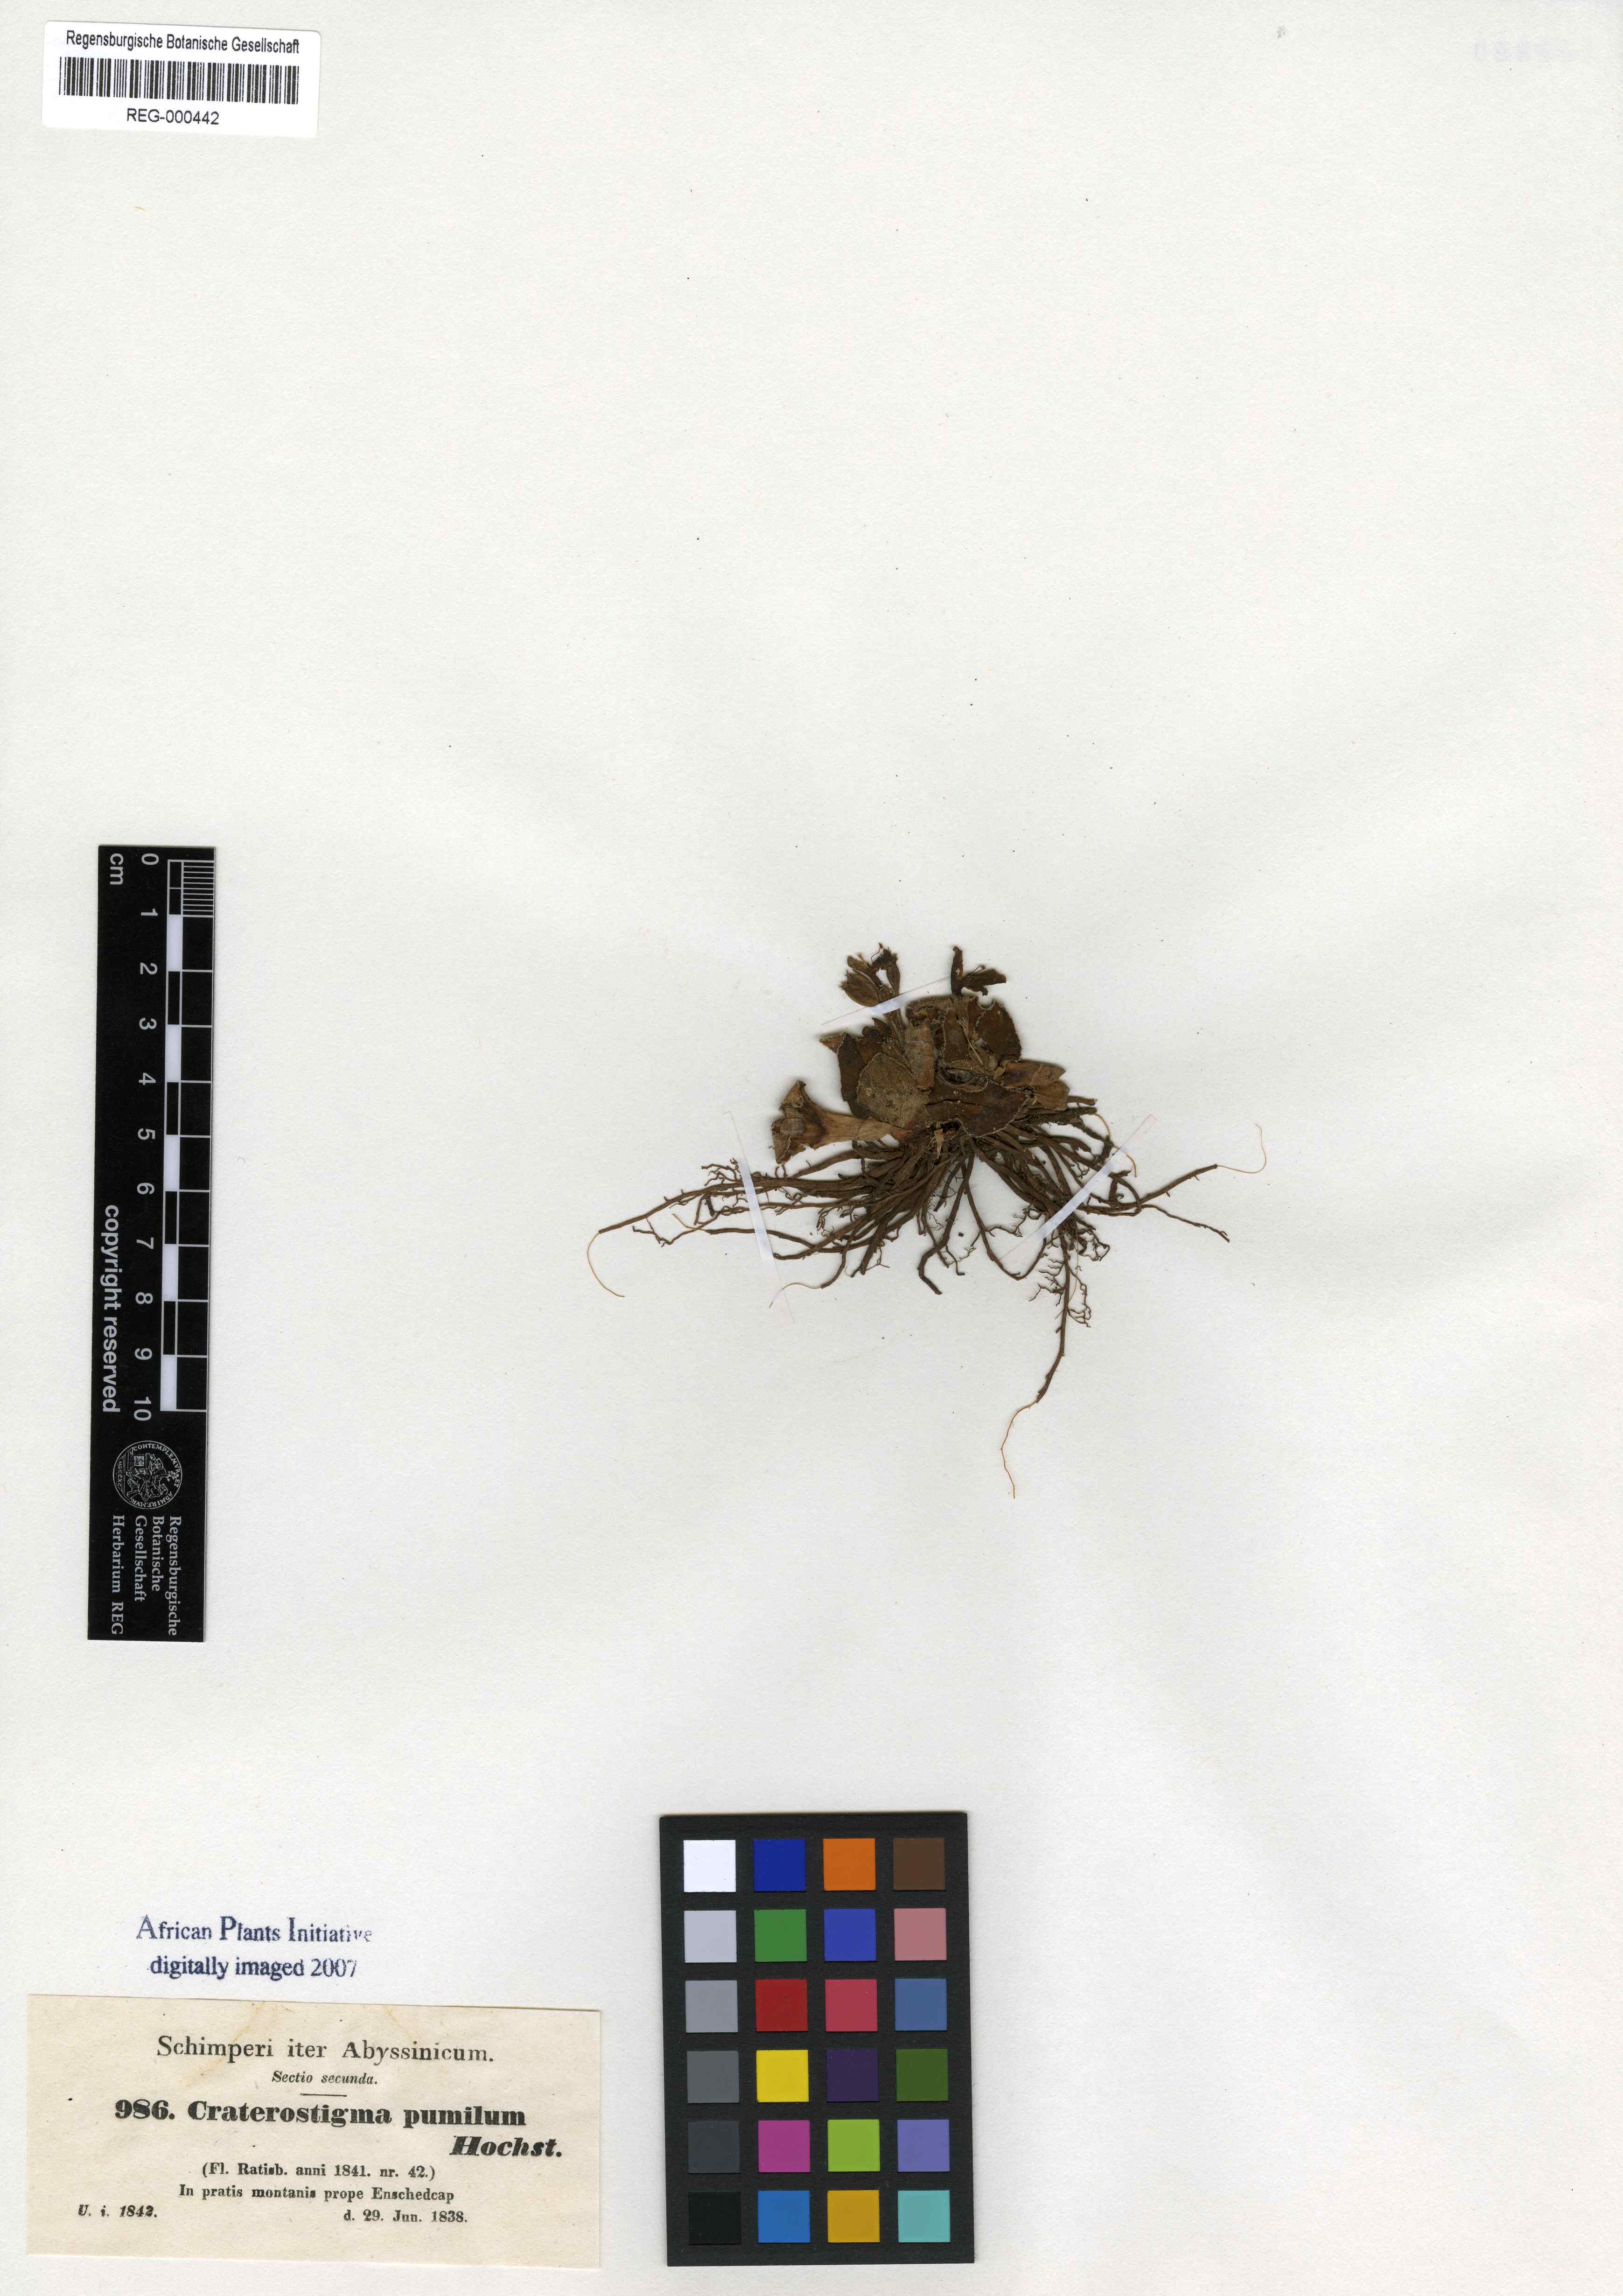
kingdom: Plantae
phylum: Tracheophyta
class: Magnoliopsida
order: Lamiales
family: Linderniaceae
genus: Craterostigma
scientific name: Craterostigma pumilum
